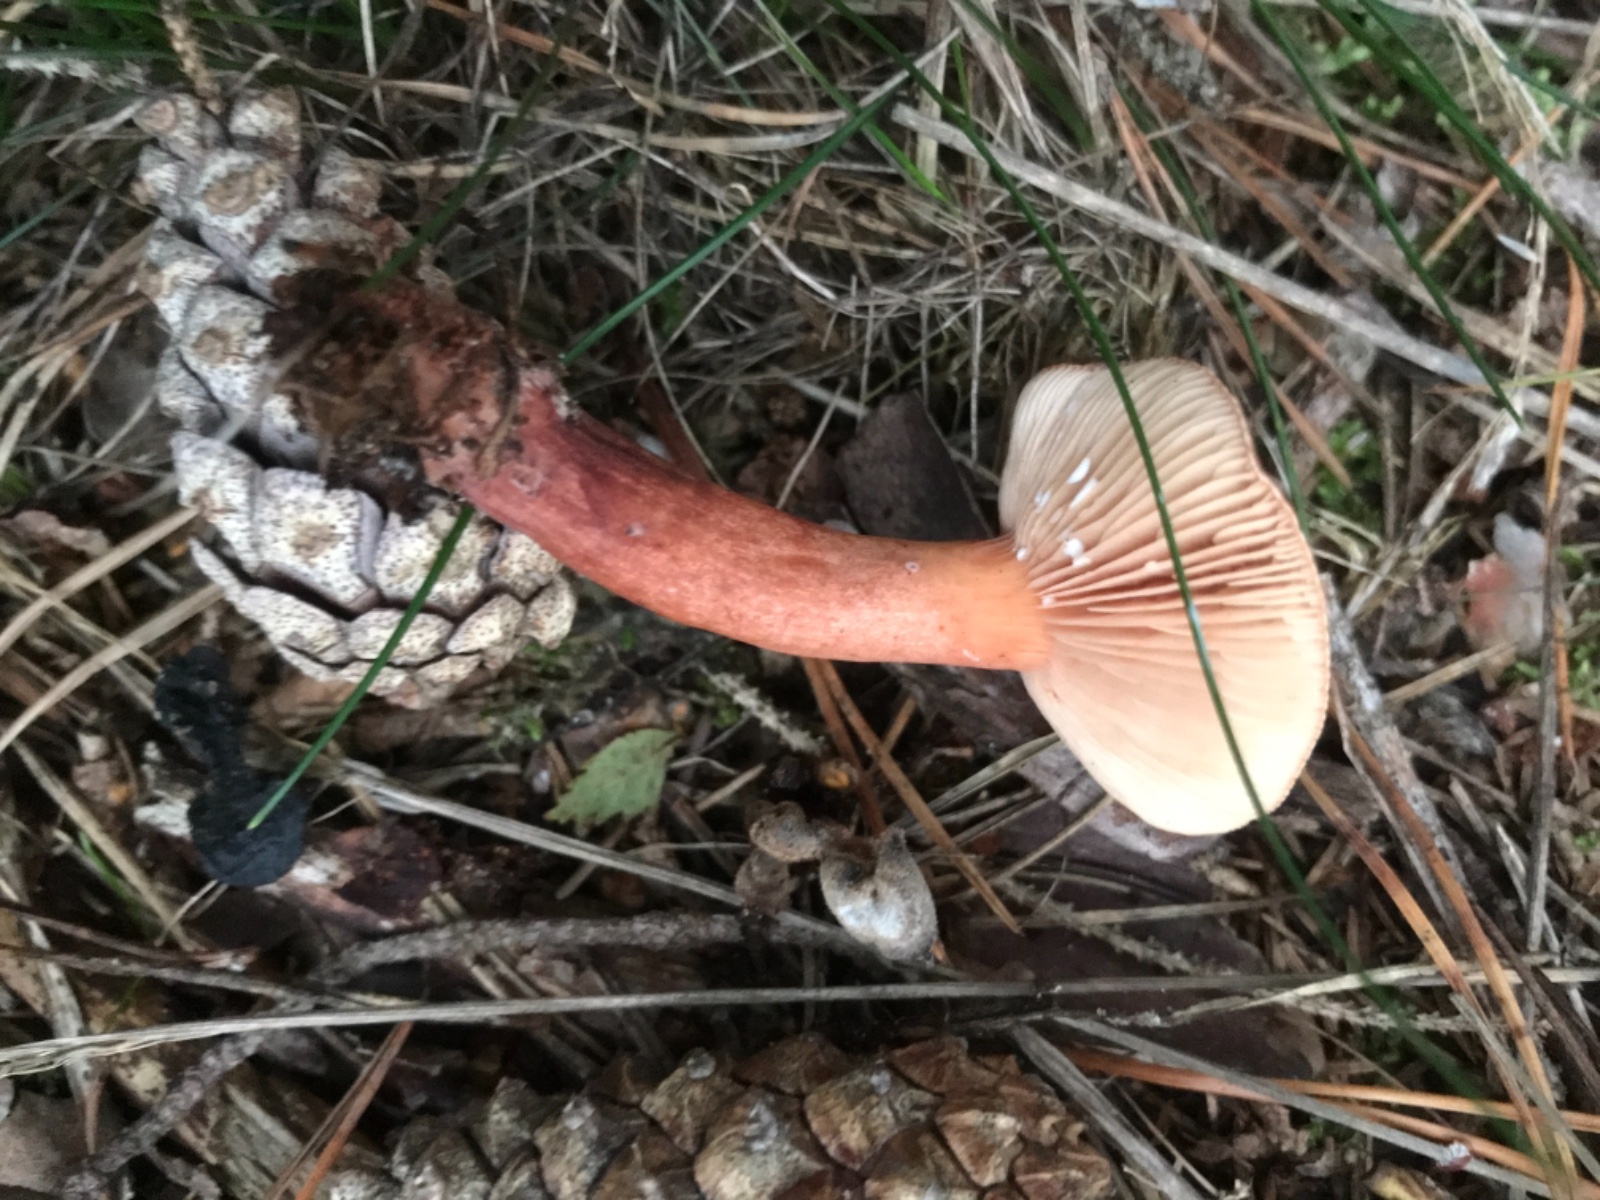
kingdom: Fungi
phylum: Basidiomycota
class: Agaricomycetes
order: Russulales
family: Russulaceae
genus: Lactarius
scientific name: Lactarius rufus
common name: rødbrun mælkehat
